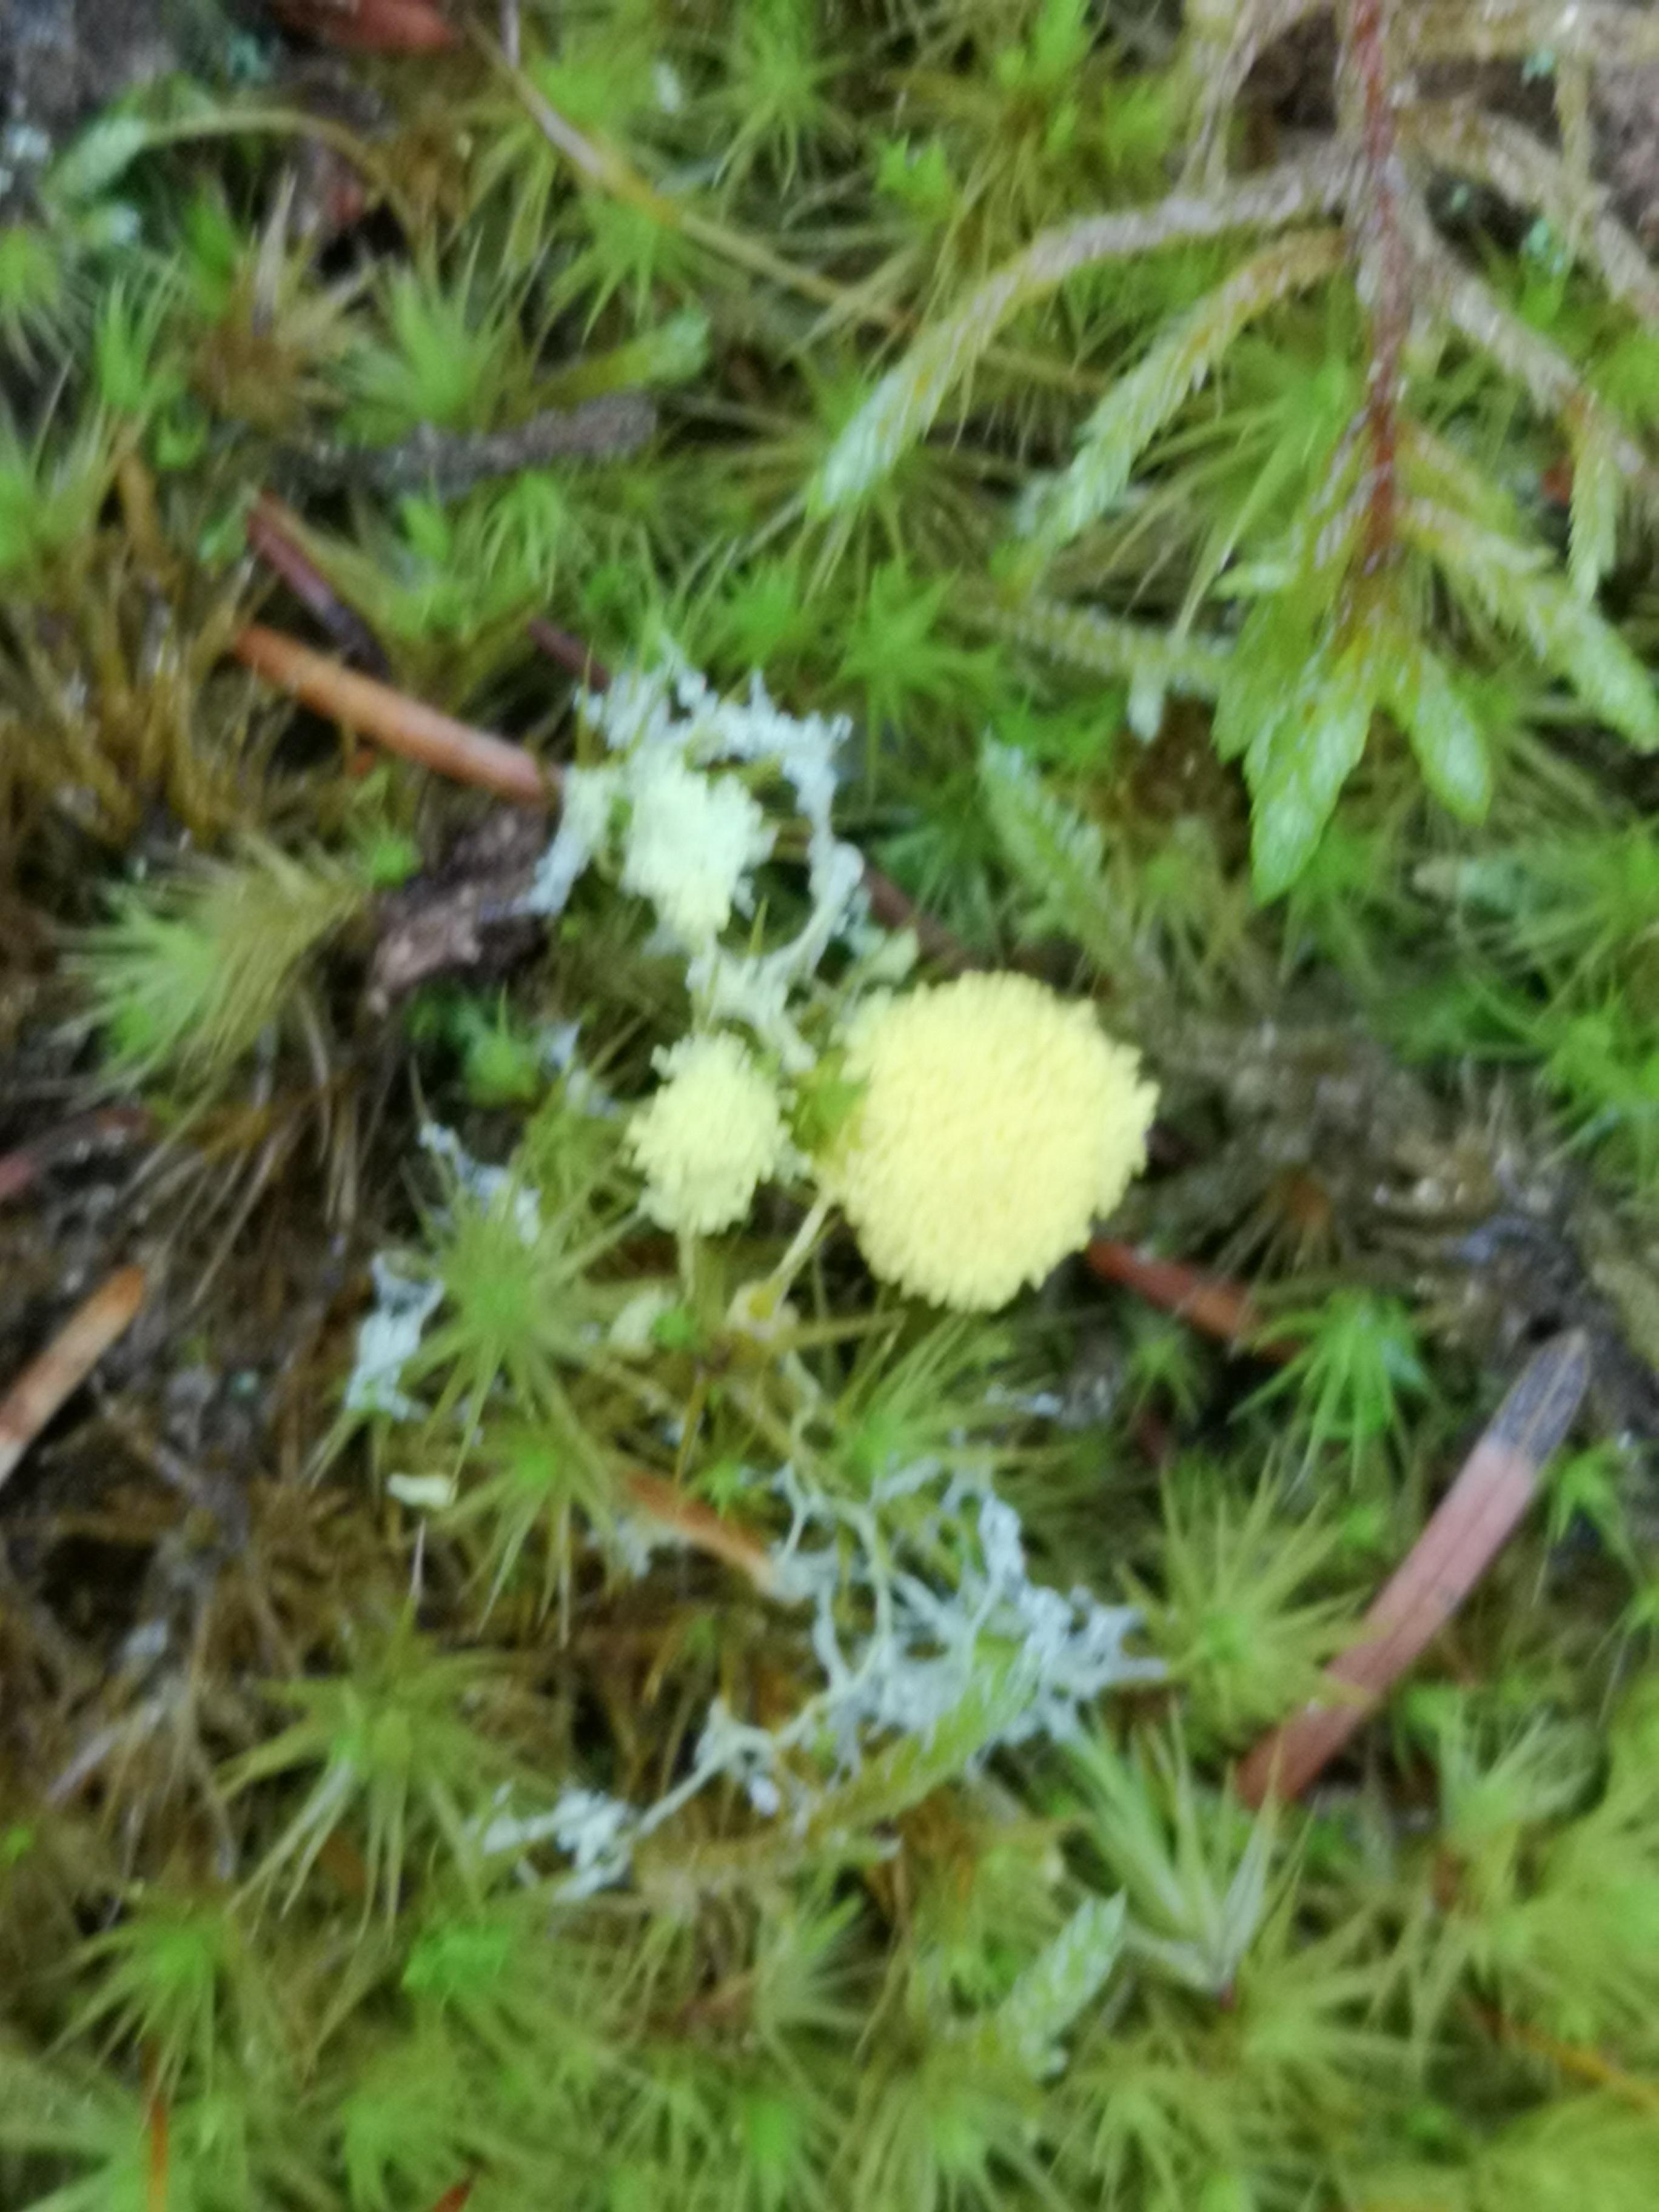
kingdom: Protozoa
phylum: Mycetozoa
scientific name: Mycetozoa
